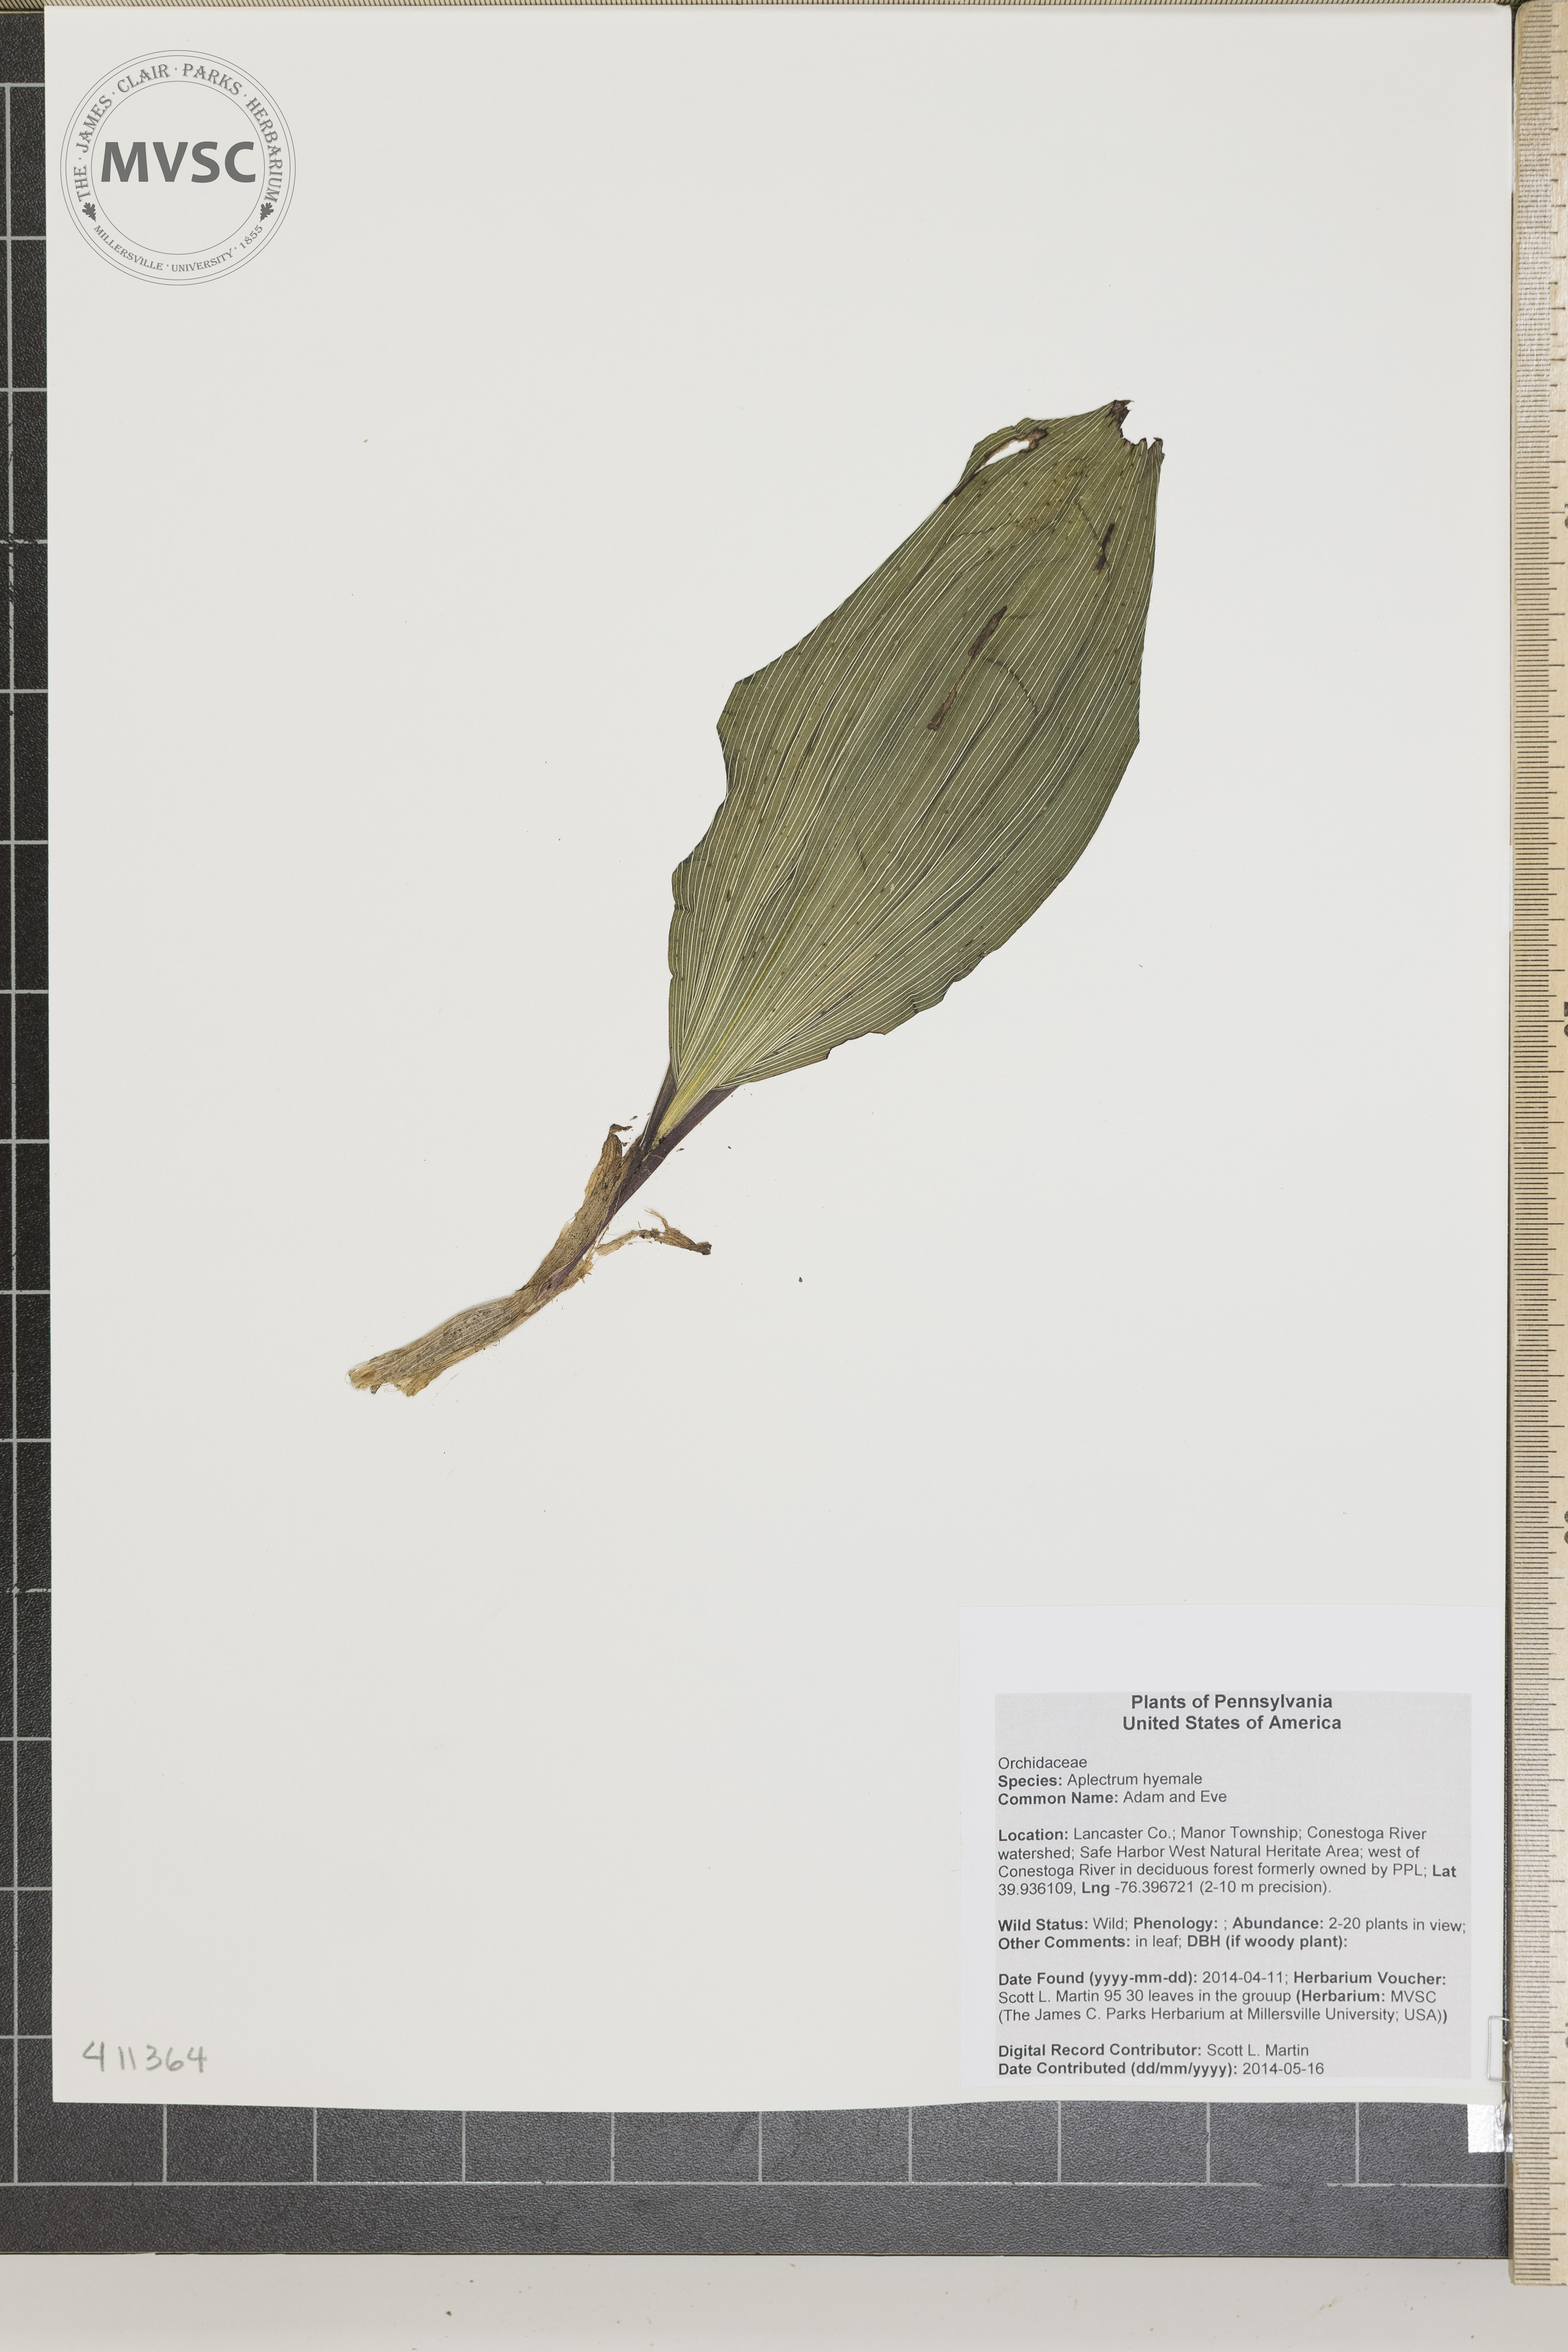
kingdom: Plantae
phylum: Tracheophyta
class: Liliopsida
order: Asparagales
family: Orchidaceae
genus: Aplectrum
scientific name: Aplectrum hyemale
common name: Adam and Eve
